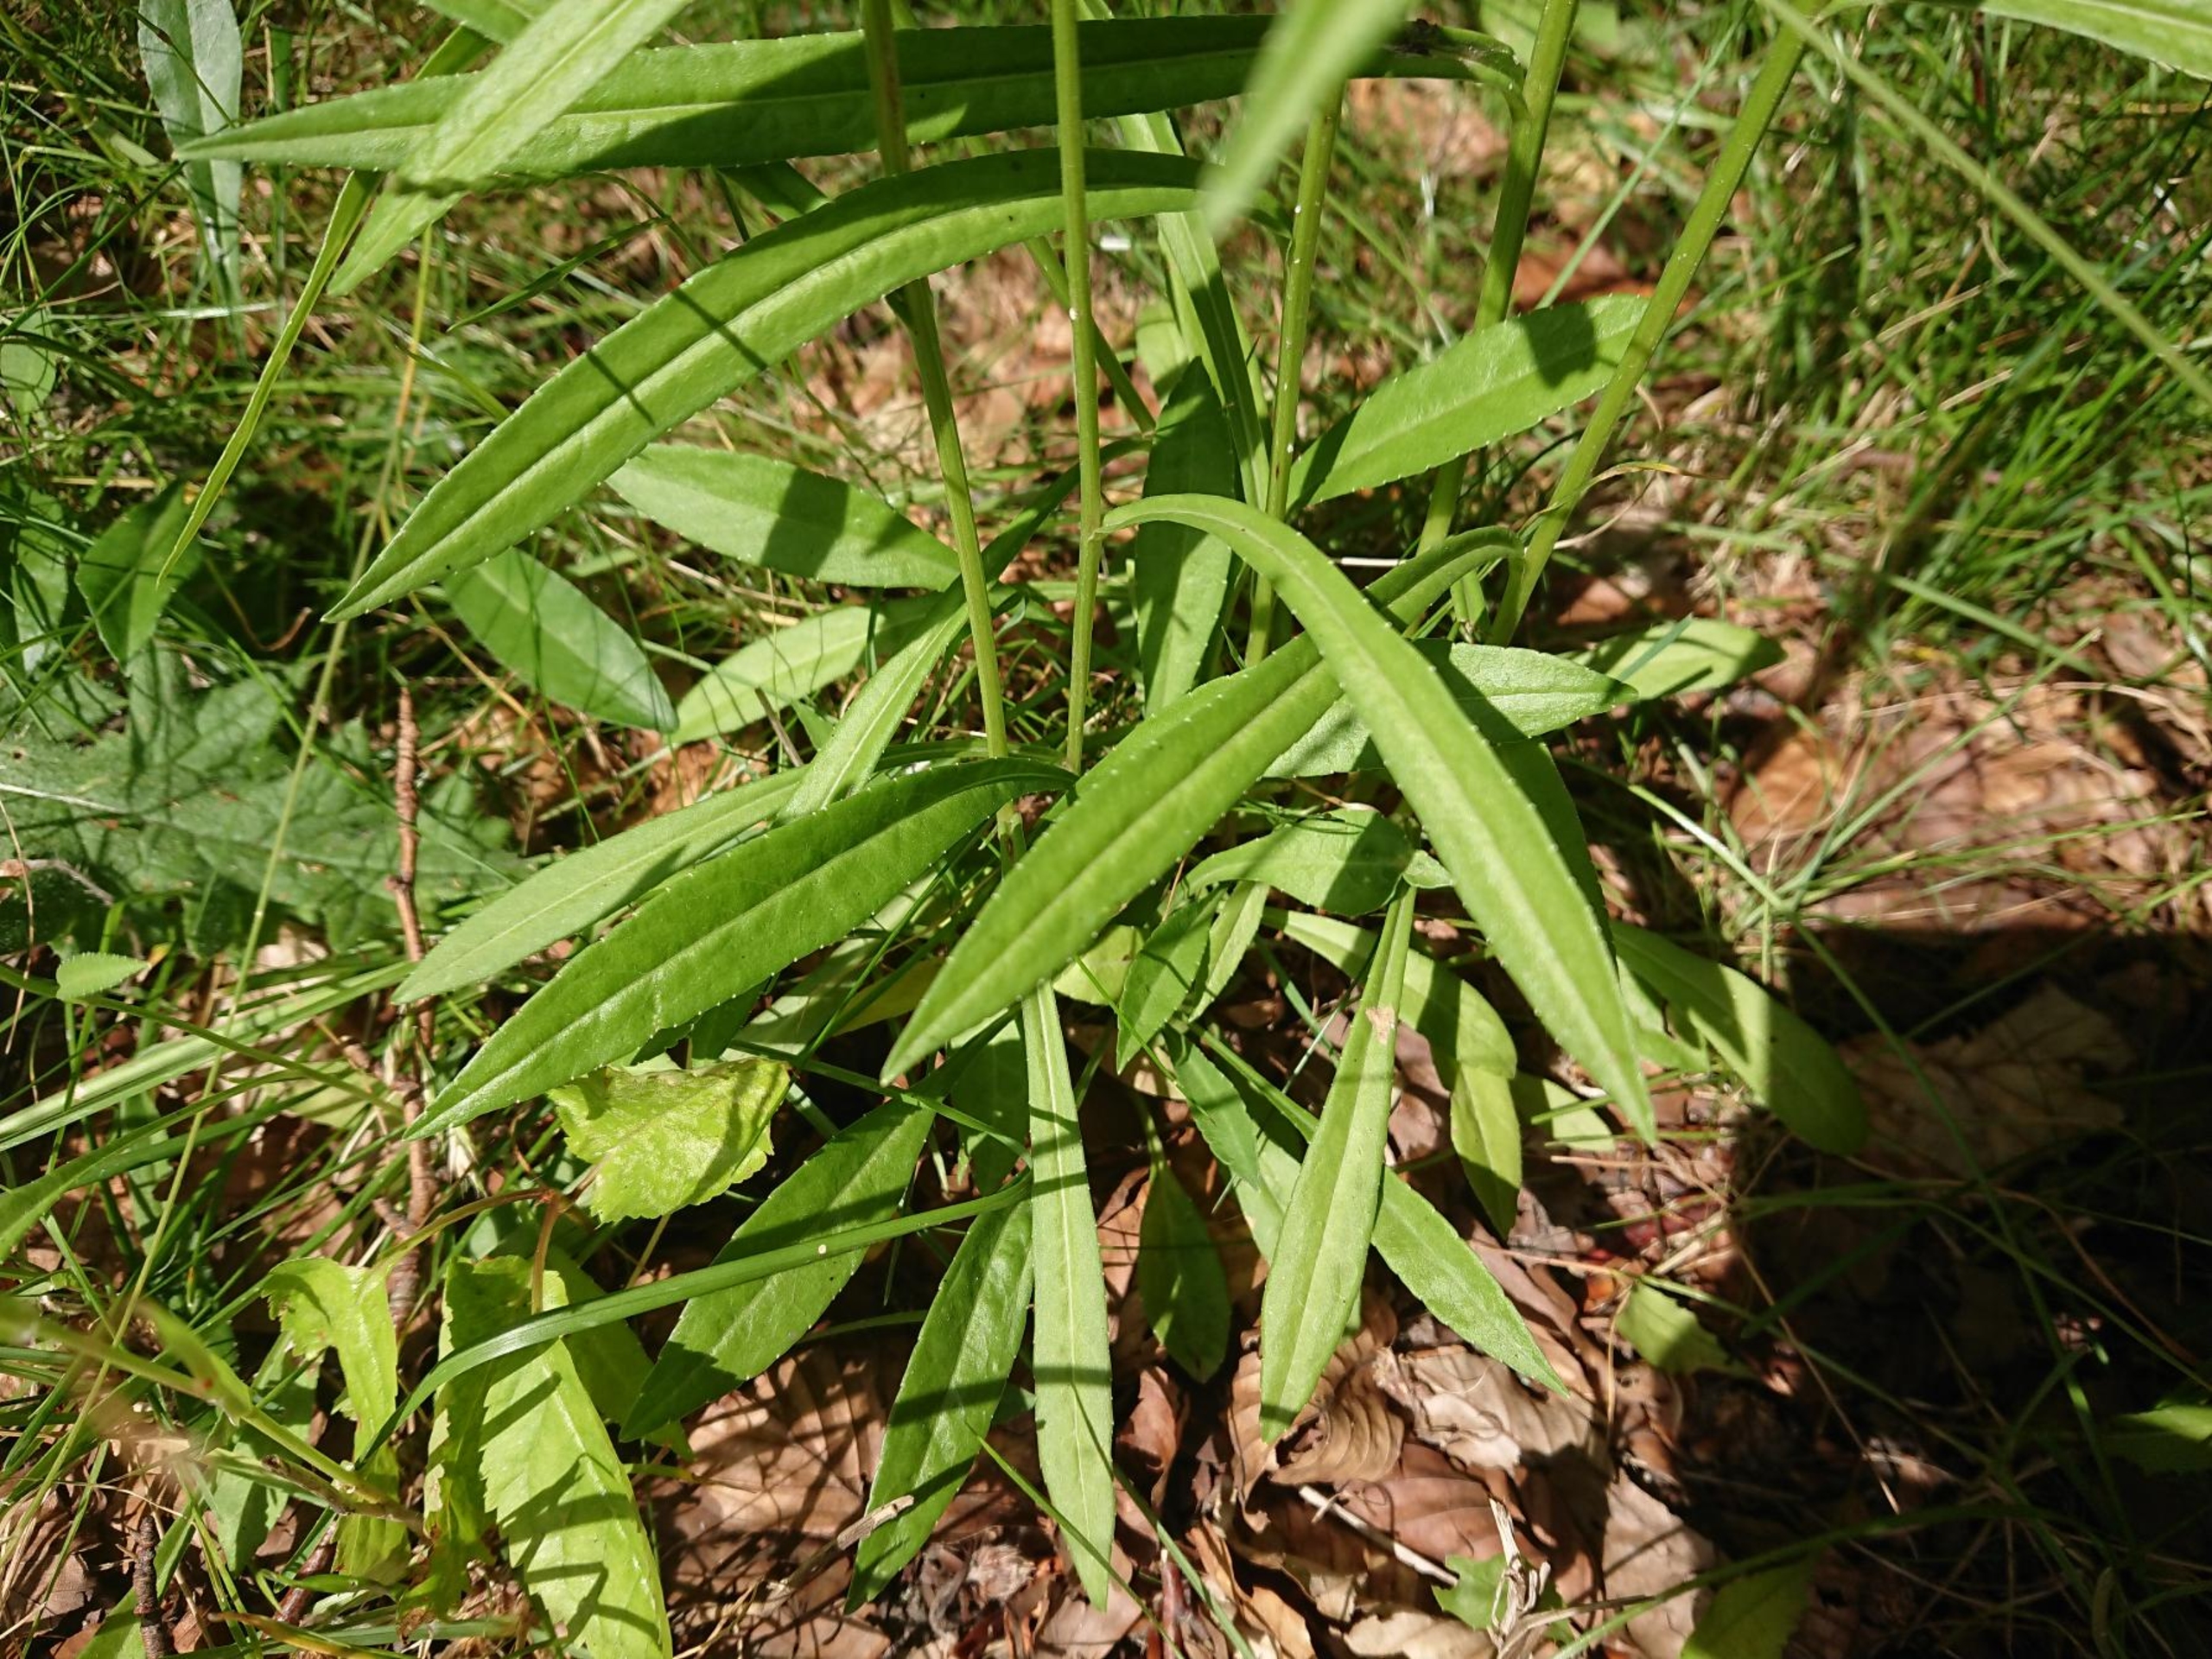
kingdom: Plantae
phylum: Tracheophyta
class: Magnoliopsida
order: Asterales
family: Campanulaceae
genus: Campanula
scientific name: Campanula persicifolia
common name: Smalbladet klokke
